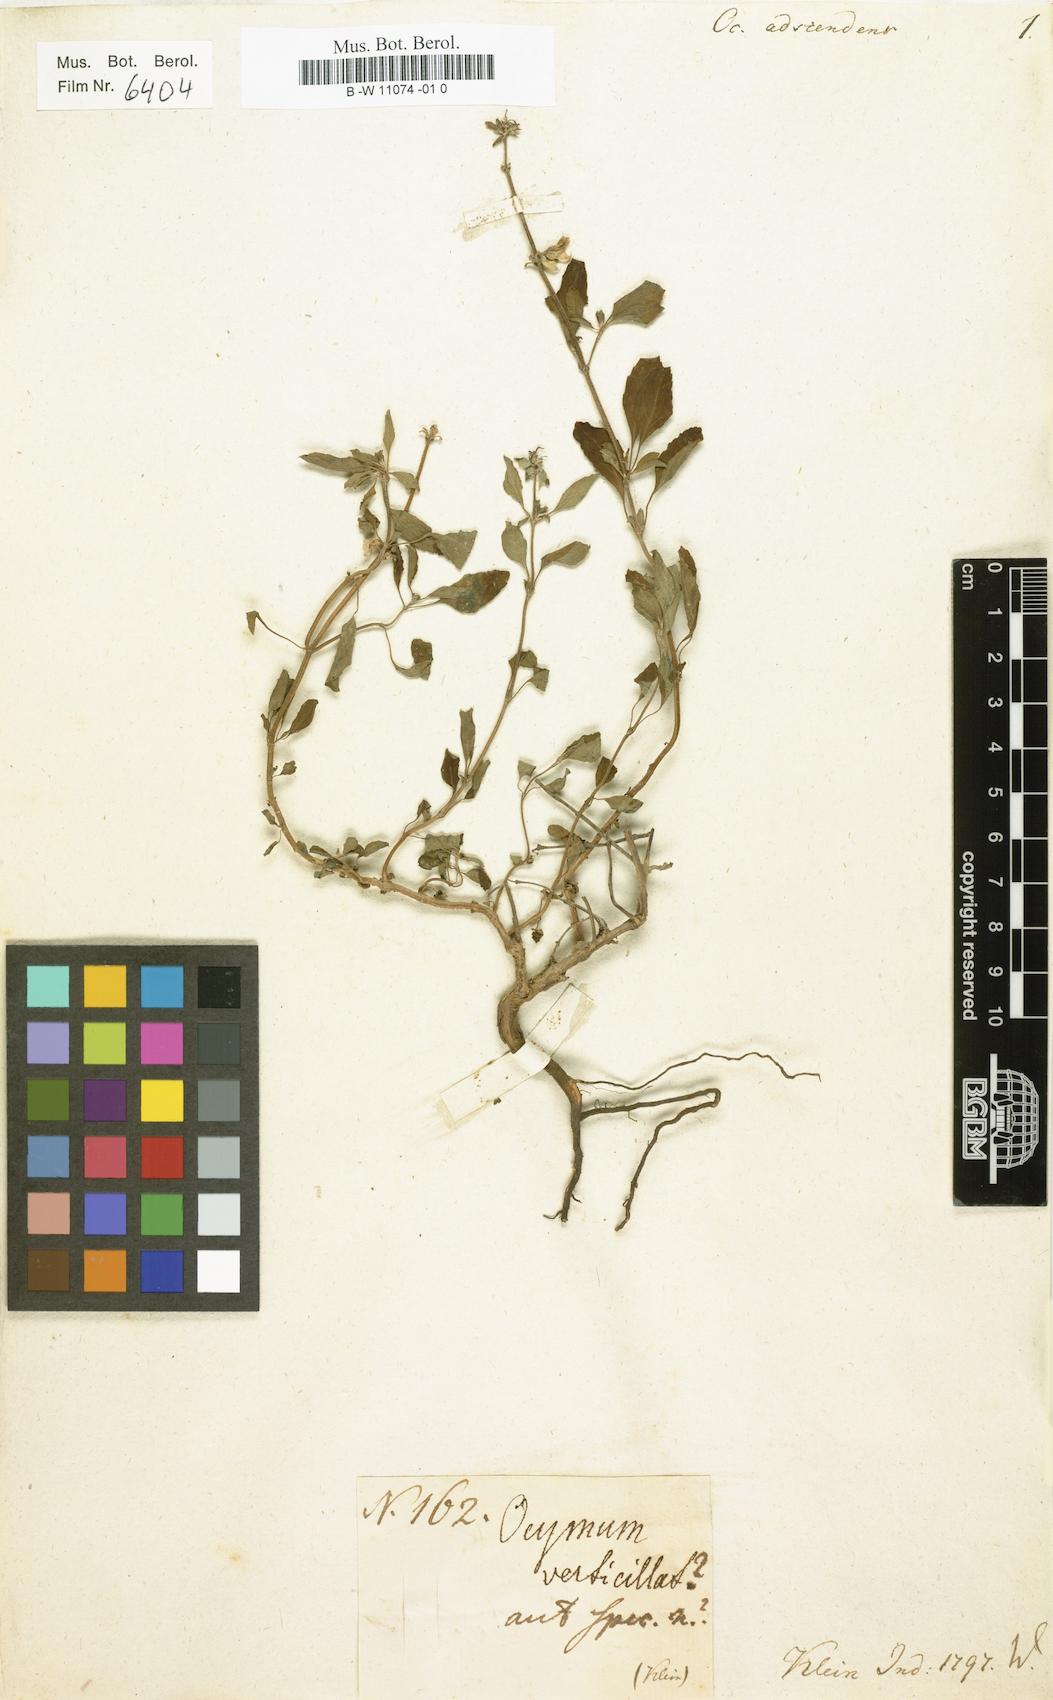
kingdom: Plantae
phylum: Tracheophyta
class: Magnoliopsida
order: Lamiales
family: Lamiaceae
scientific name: Lamiaceae
